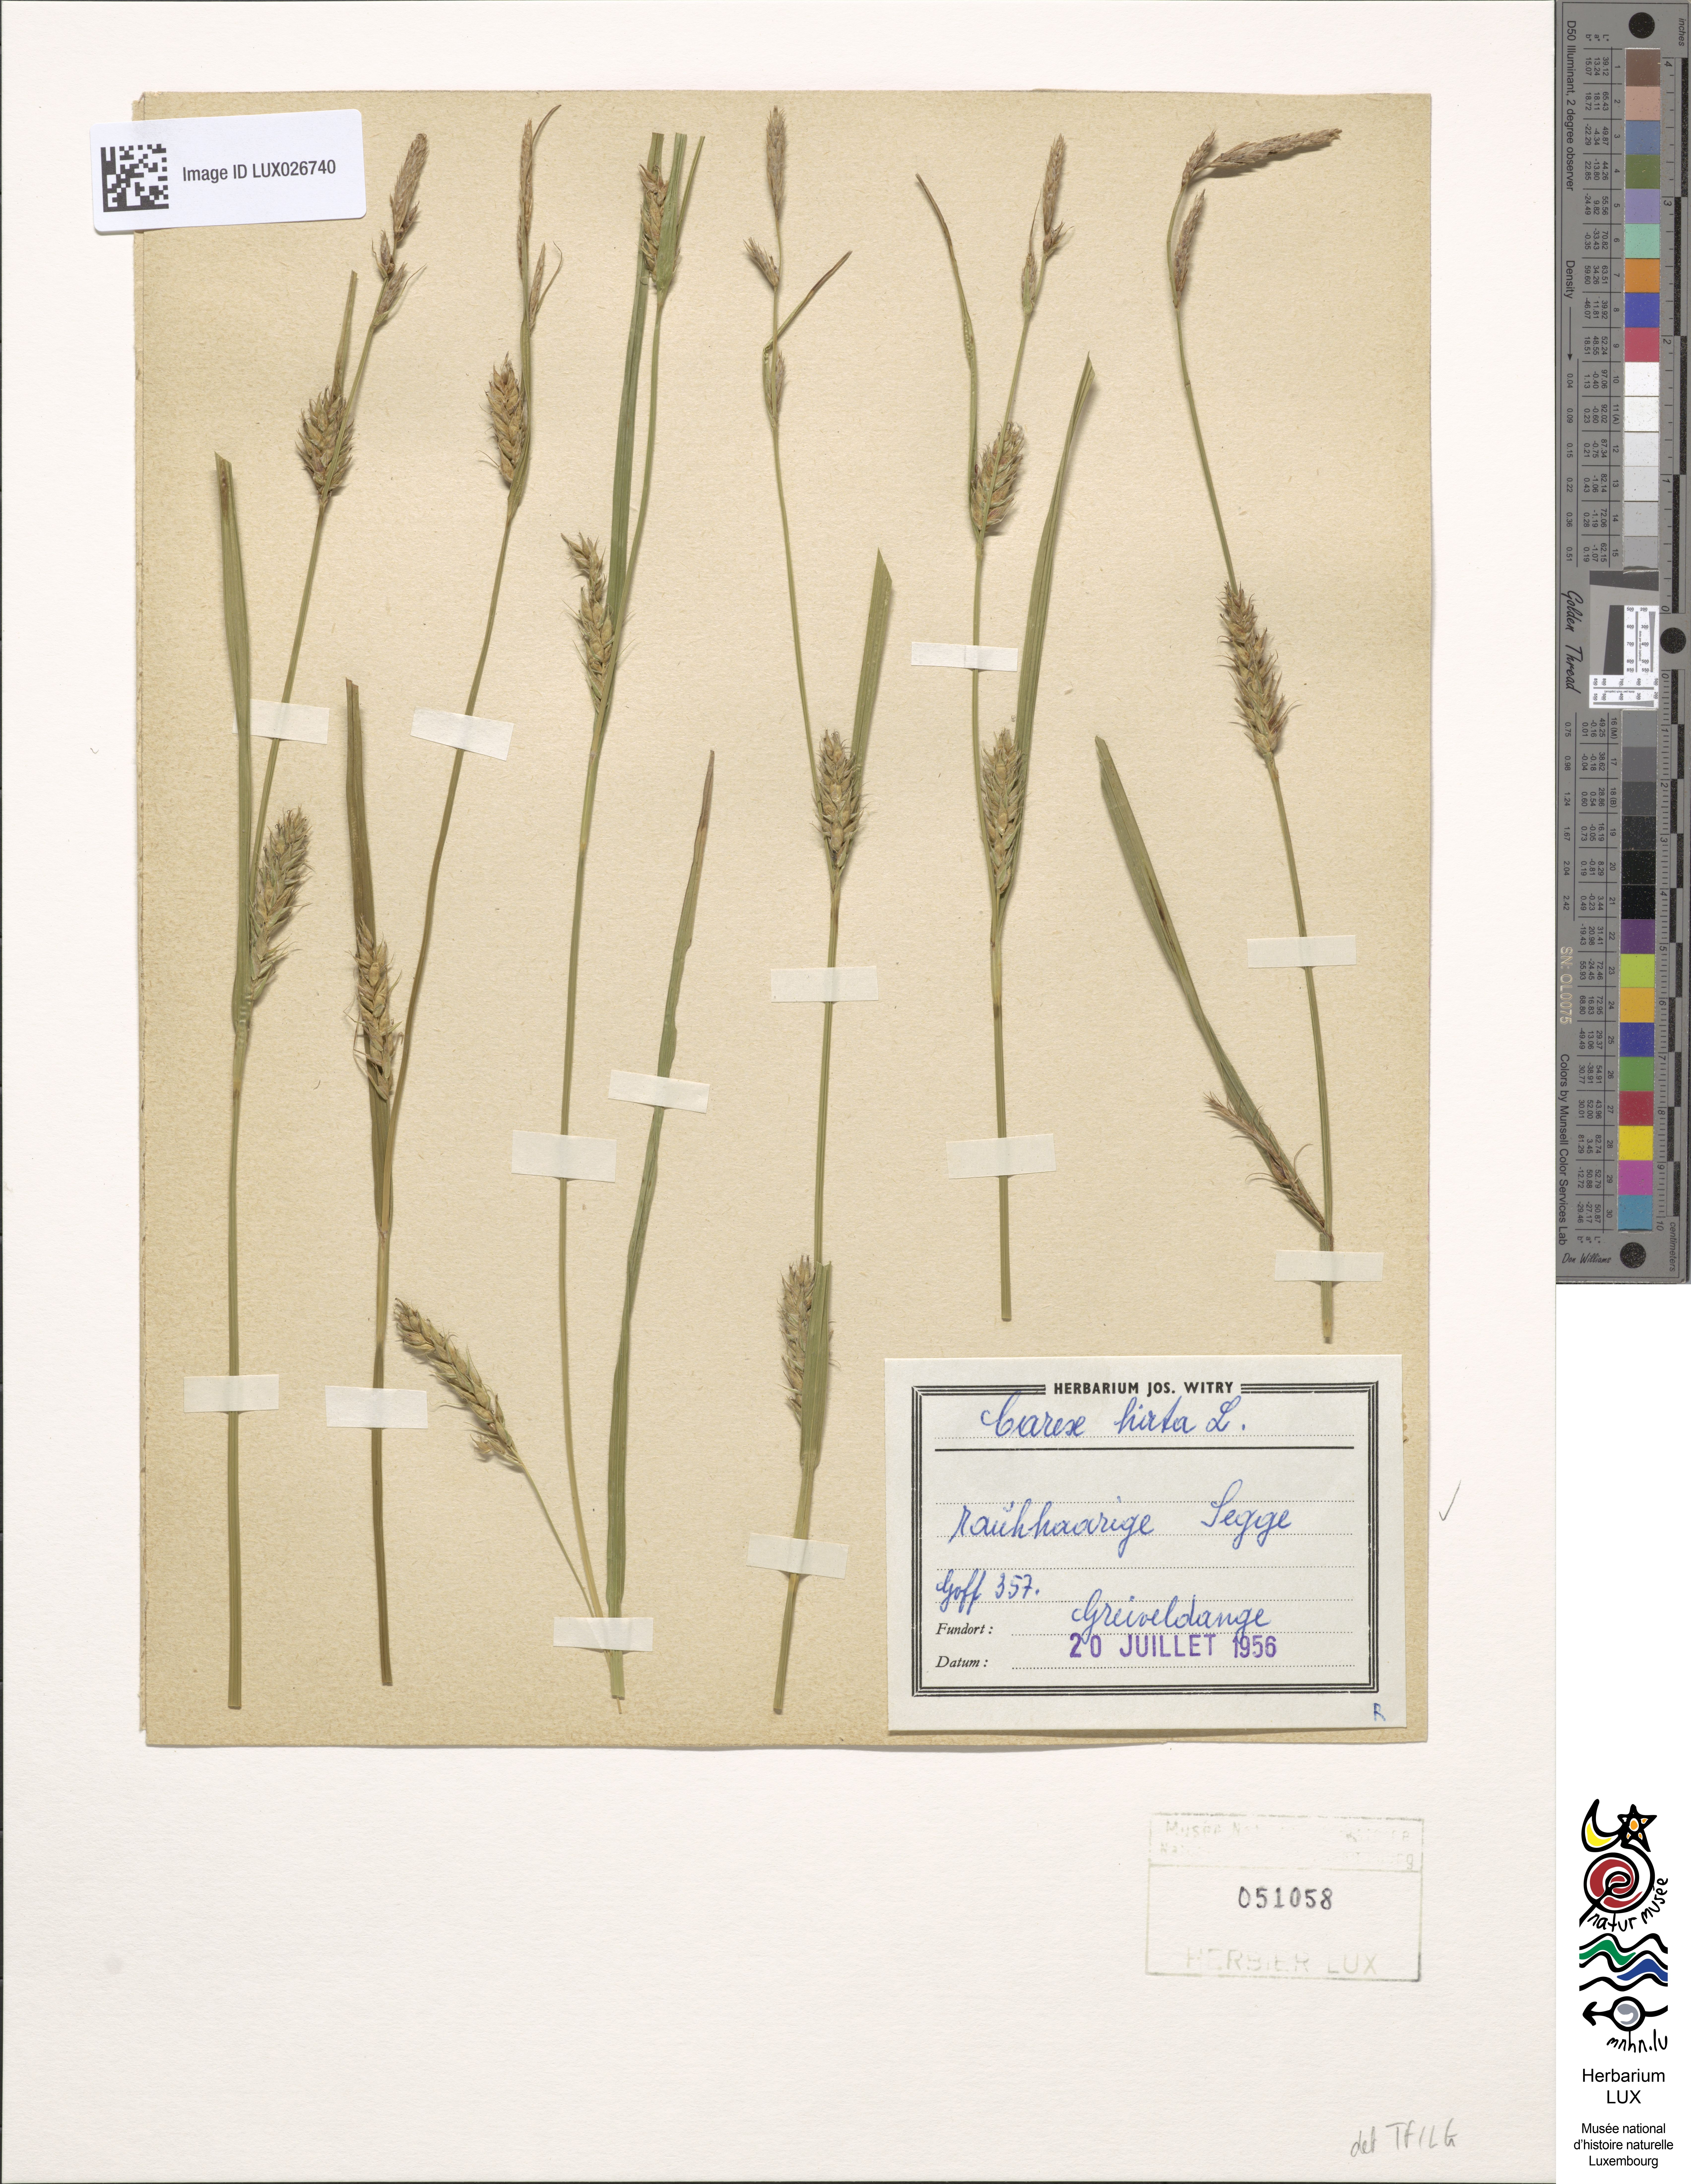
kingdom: Plantae
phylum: Tracheophyta
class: Liliopsida
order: Poales
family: Cyperaceae
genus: Carex
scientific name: Carex hirta
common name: Hairy sedge
